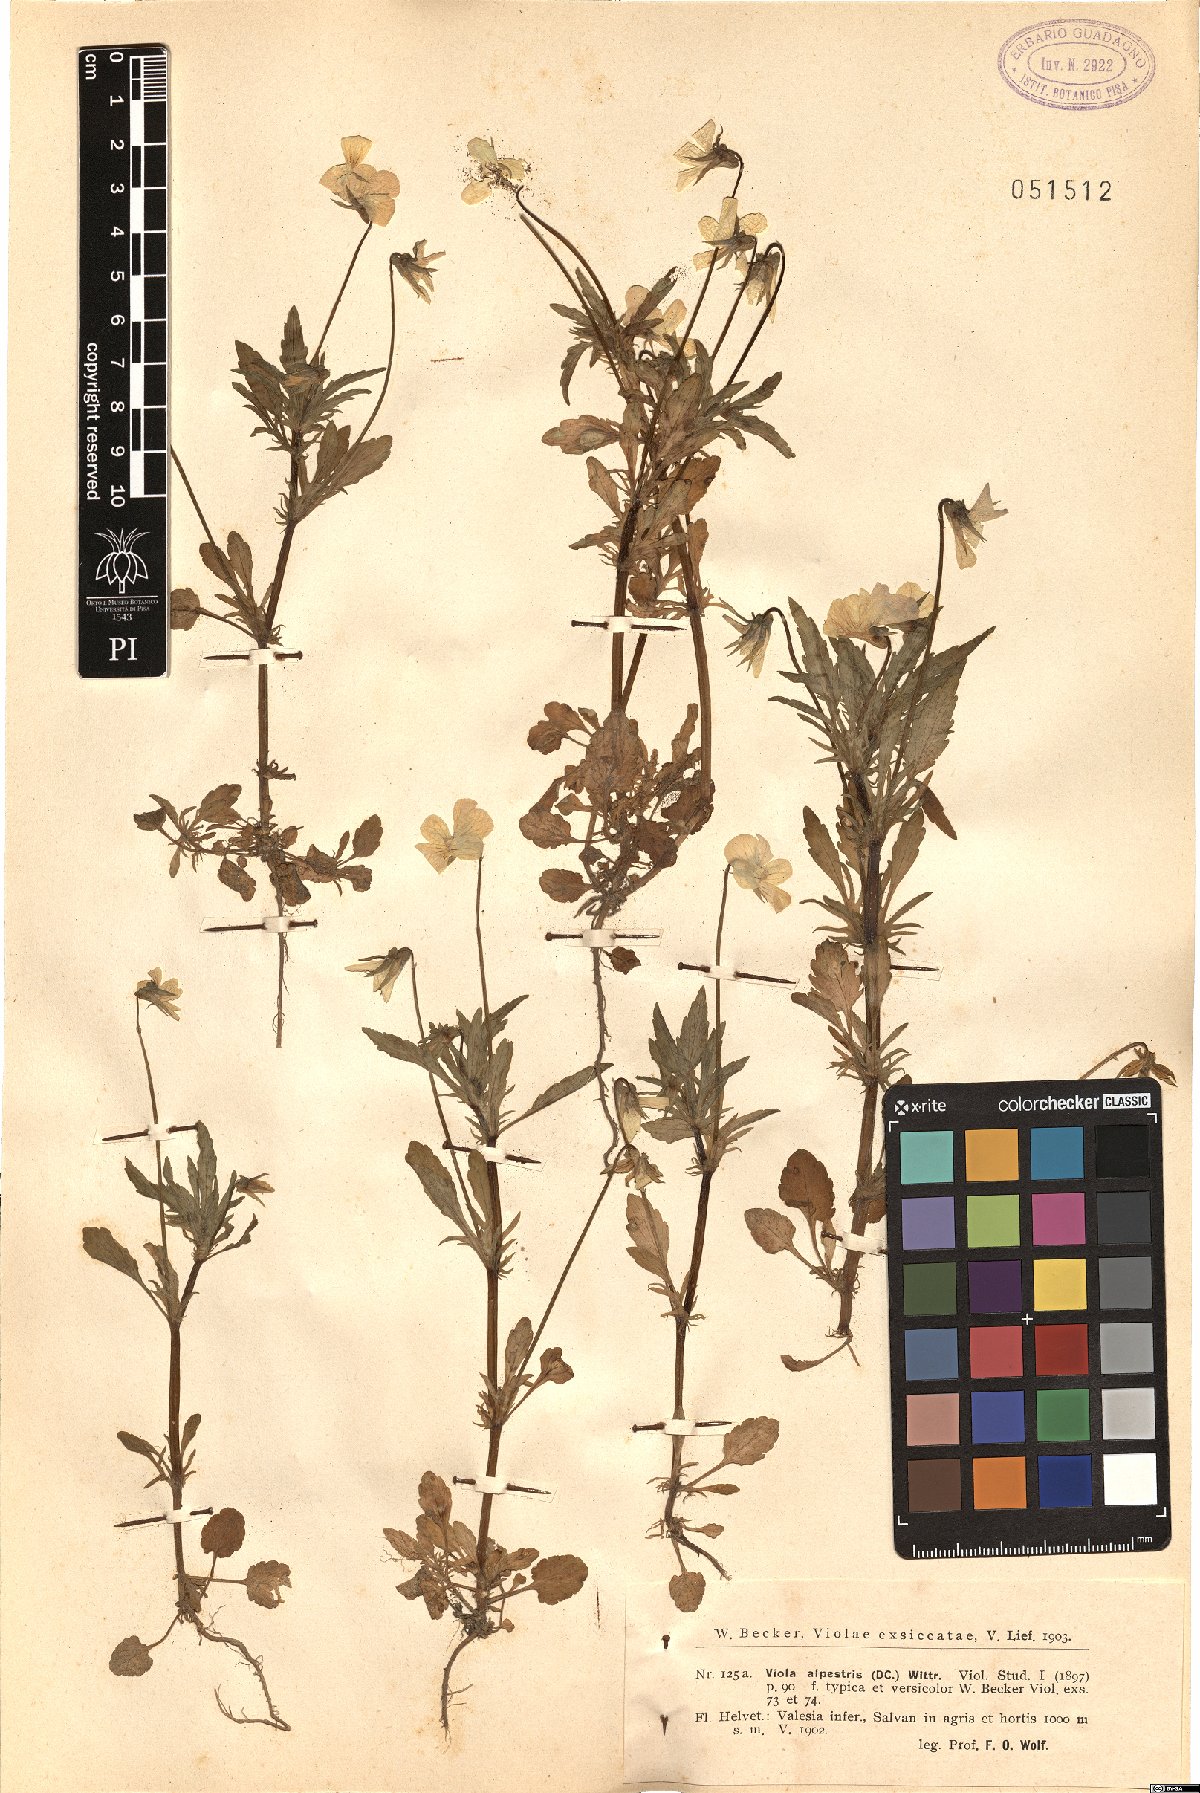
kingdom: Plantae
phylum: Tracheophyta
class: Magnoliopsida
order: Malpighiales
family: Violaceae
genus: Viola
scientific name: Viola tricolor
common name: Pansy
